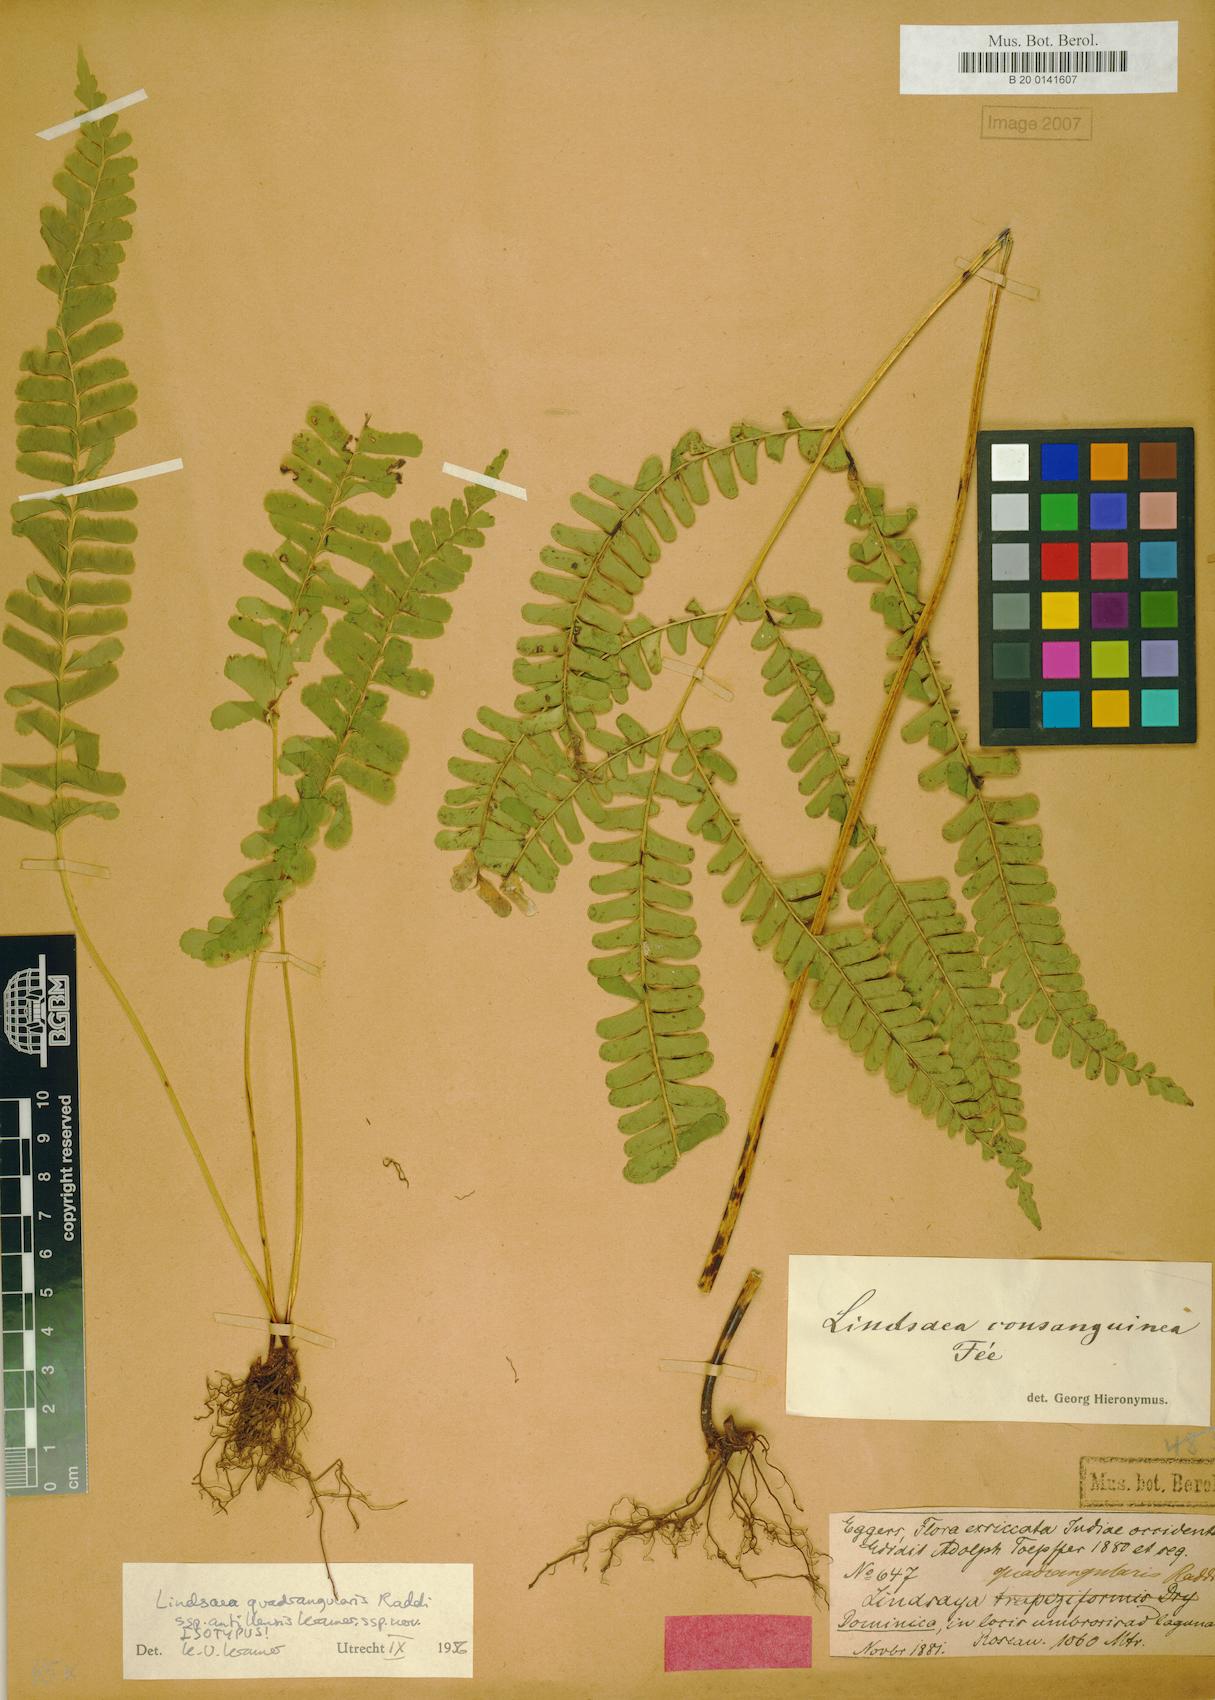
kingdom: Plantae
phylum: Tracheophyta
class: Polypodiopsida
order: Polypodiales
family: Lindsaeaceae
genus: Lindsaea
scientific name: Lindsaea quadrangularis
